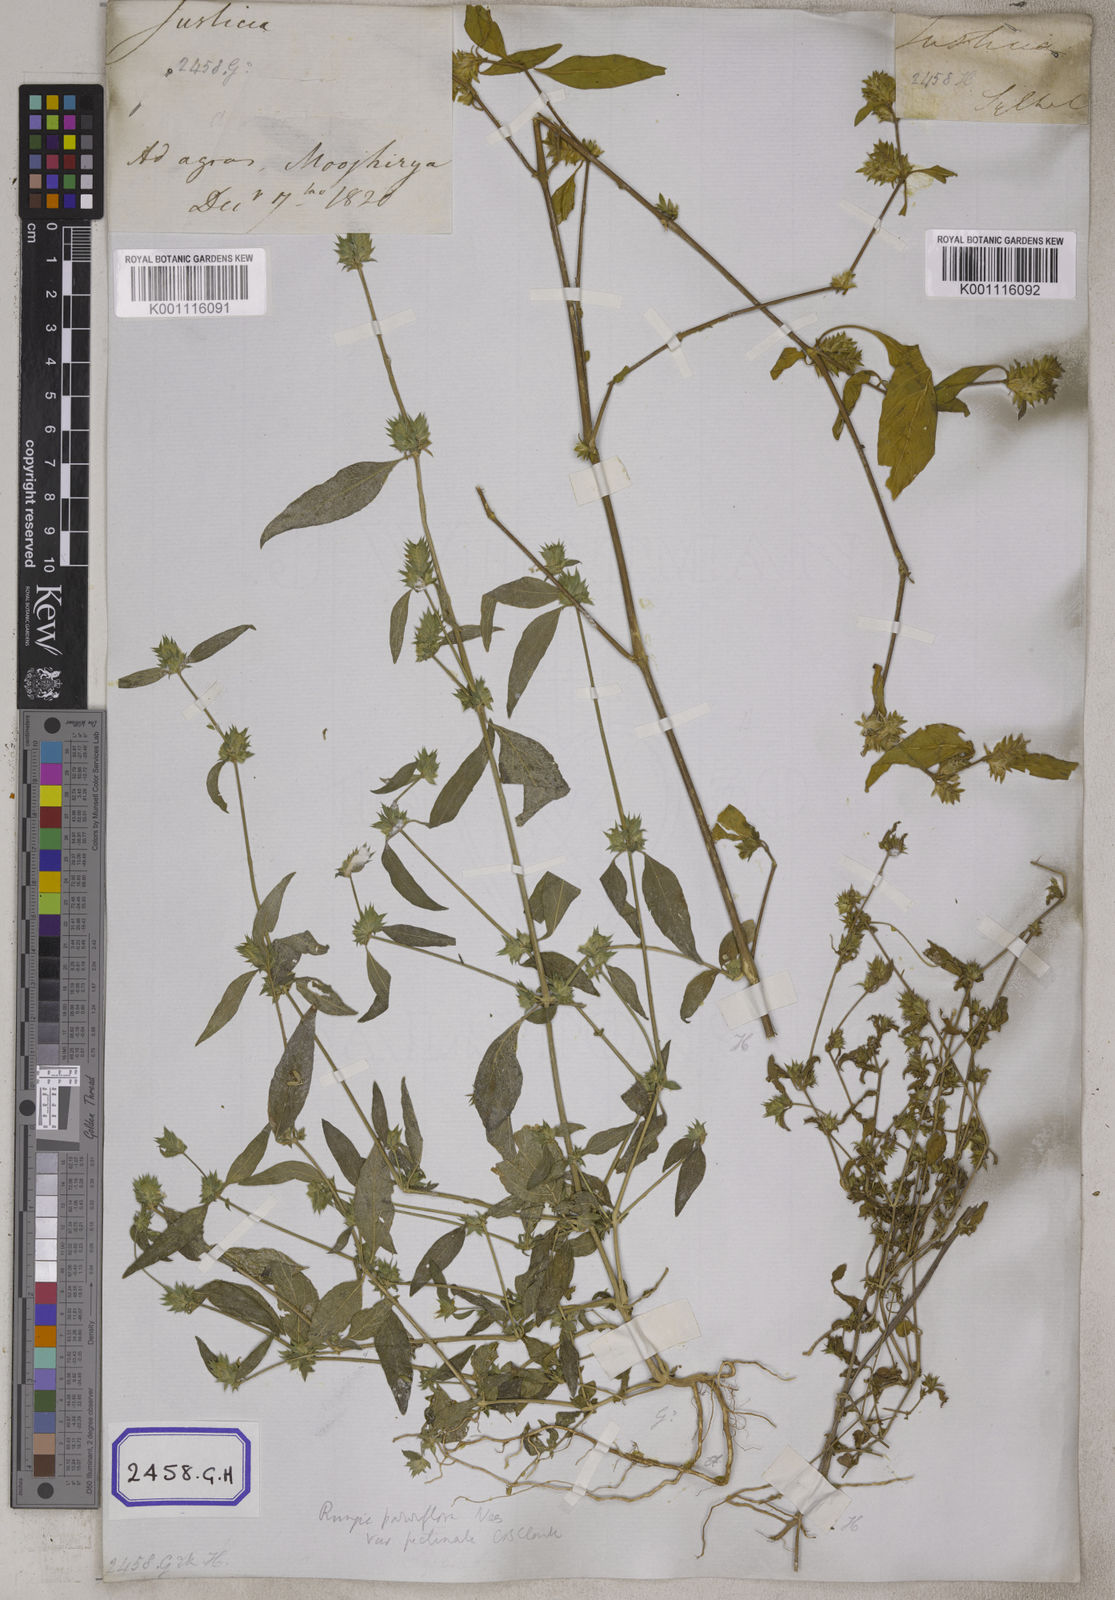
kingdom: Plantae
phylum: Tracheophyta
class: Magnoliopsida
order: Lamiales
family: Acanthaceae
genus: Rungia
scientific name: Rungia pectinata
